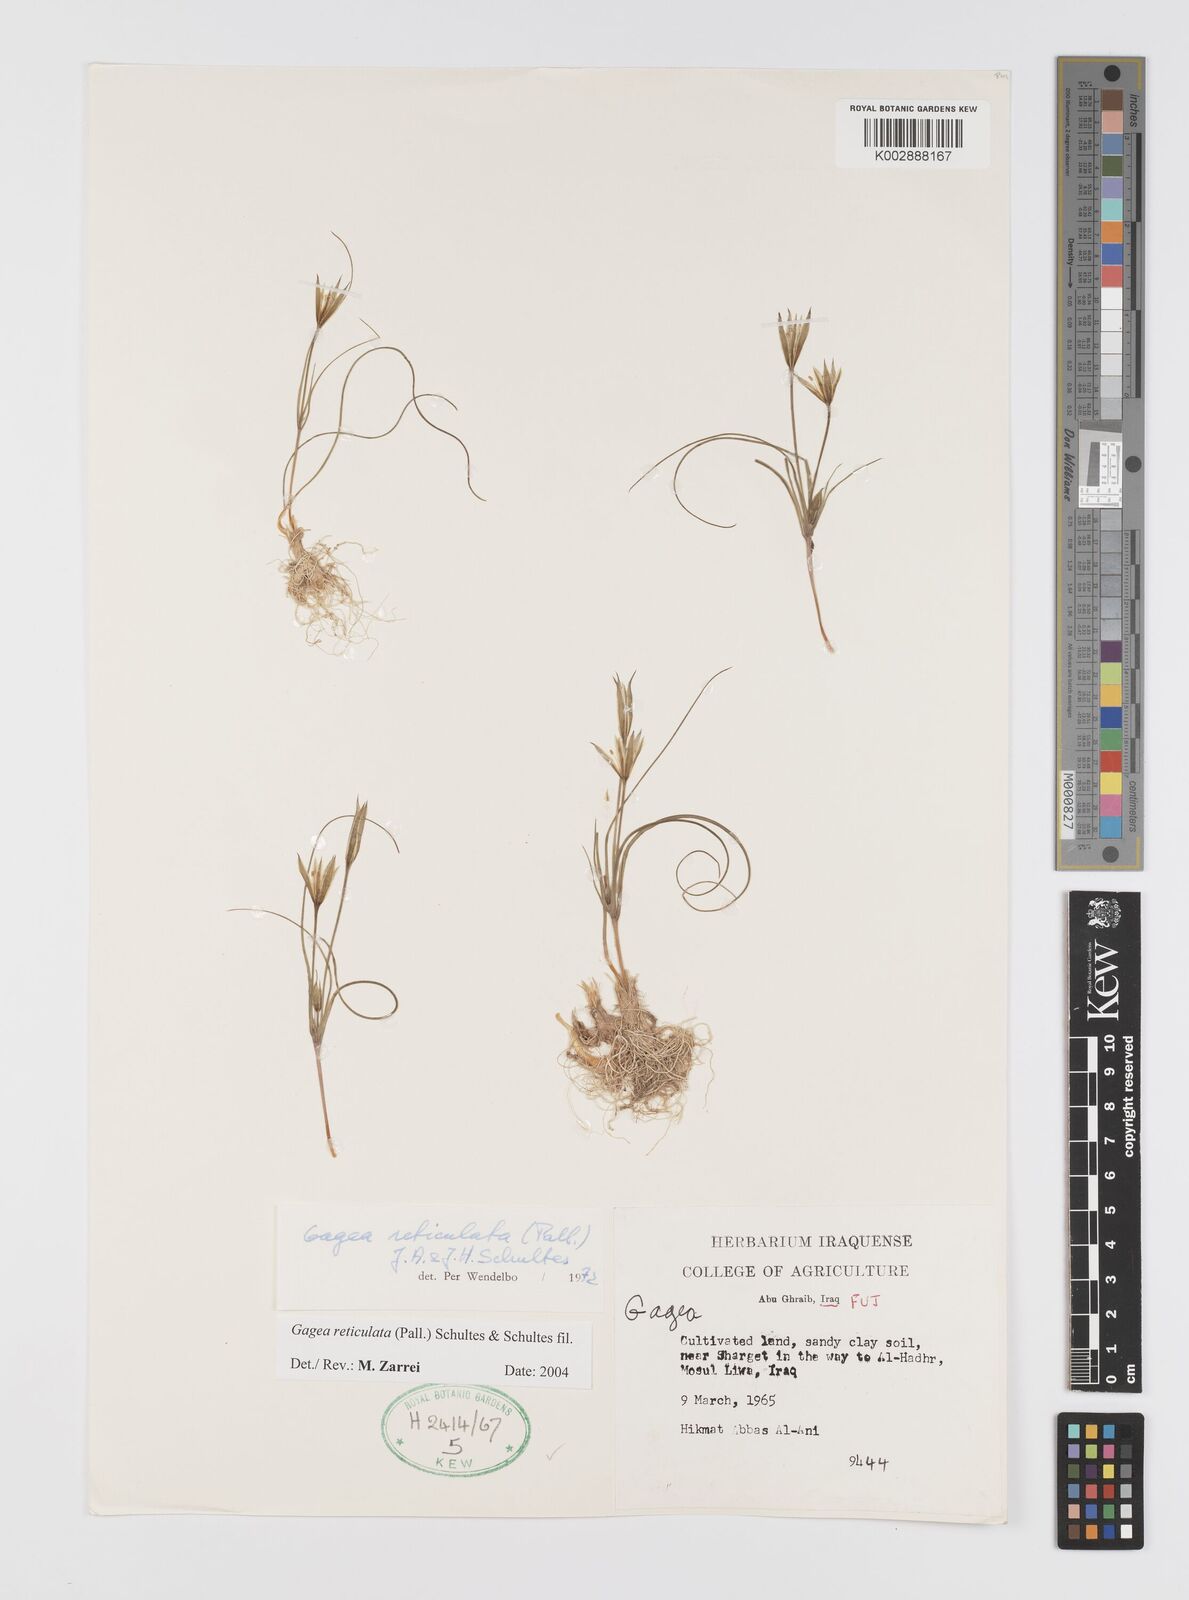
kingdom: Plantae
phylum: Tracheophyta
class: Liliopsida
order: Liliales
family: Liliaceae
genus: Gagea
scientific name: Gagea reticulata
